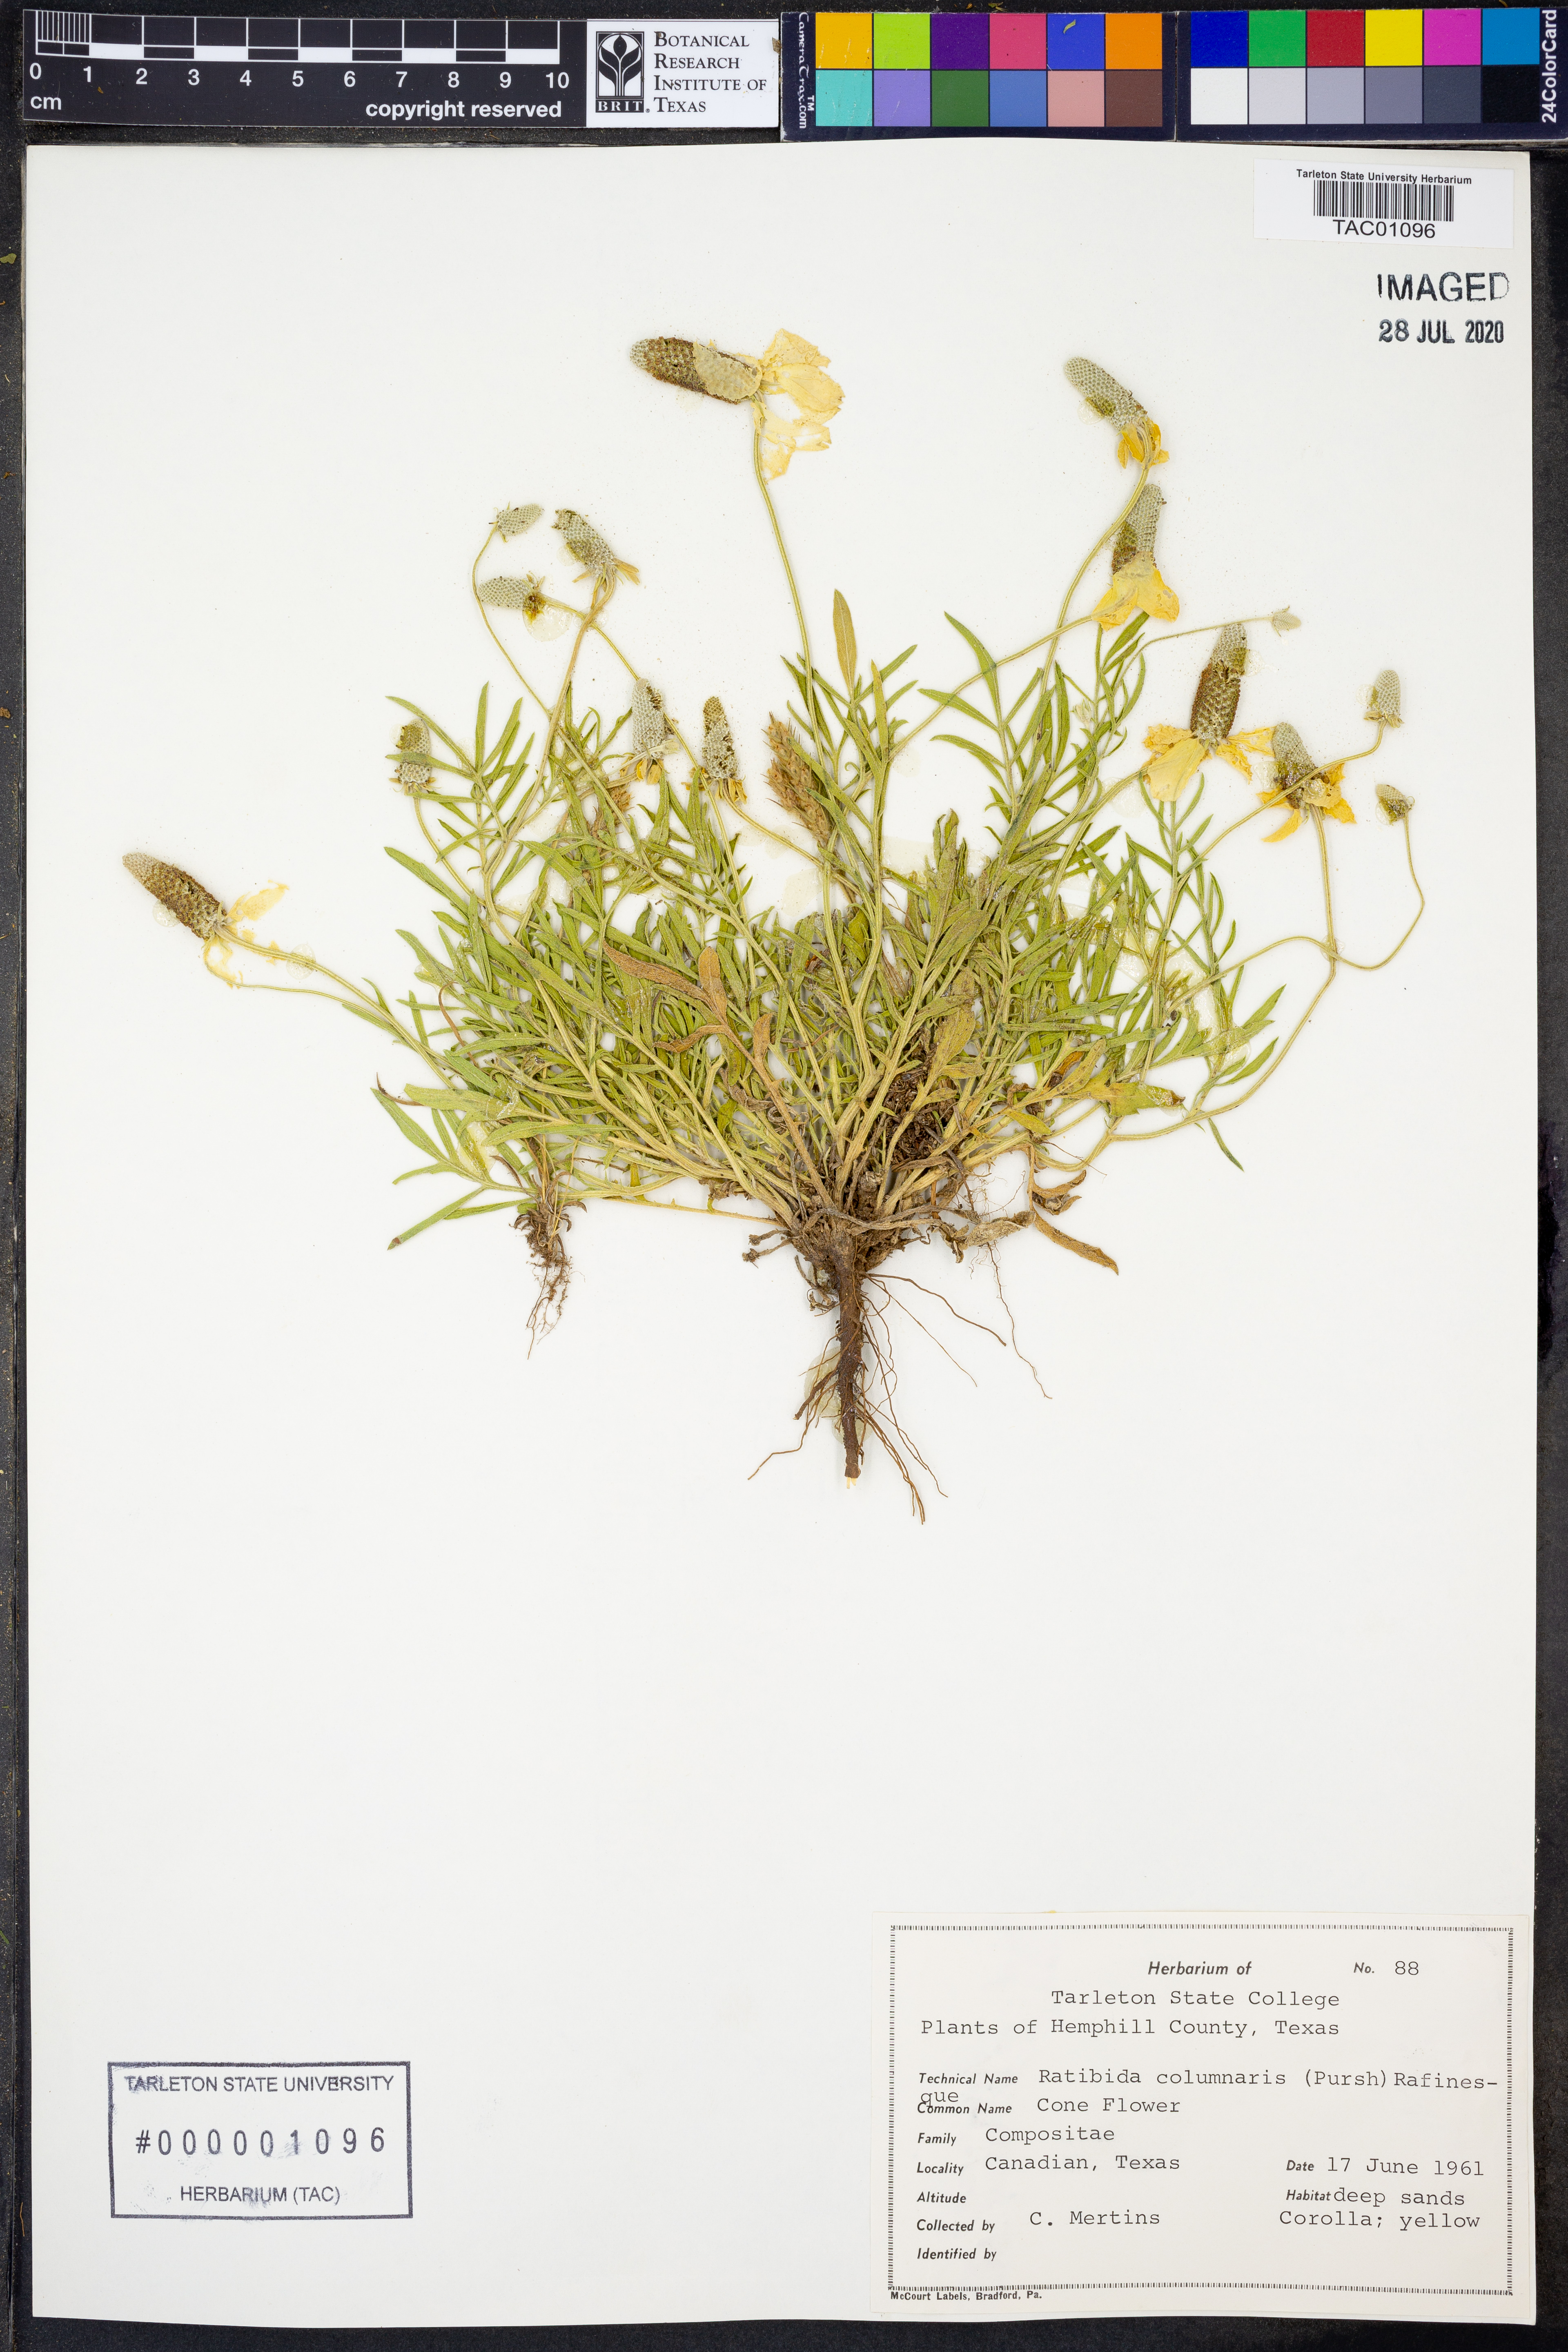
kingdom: Plantae
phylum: Tracheophyta
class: Magnoliopsida
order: Asterales
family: Asteraceae
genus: Ratibida
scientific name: Ratibida columnifera
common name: Prairie coneflower
